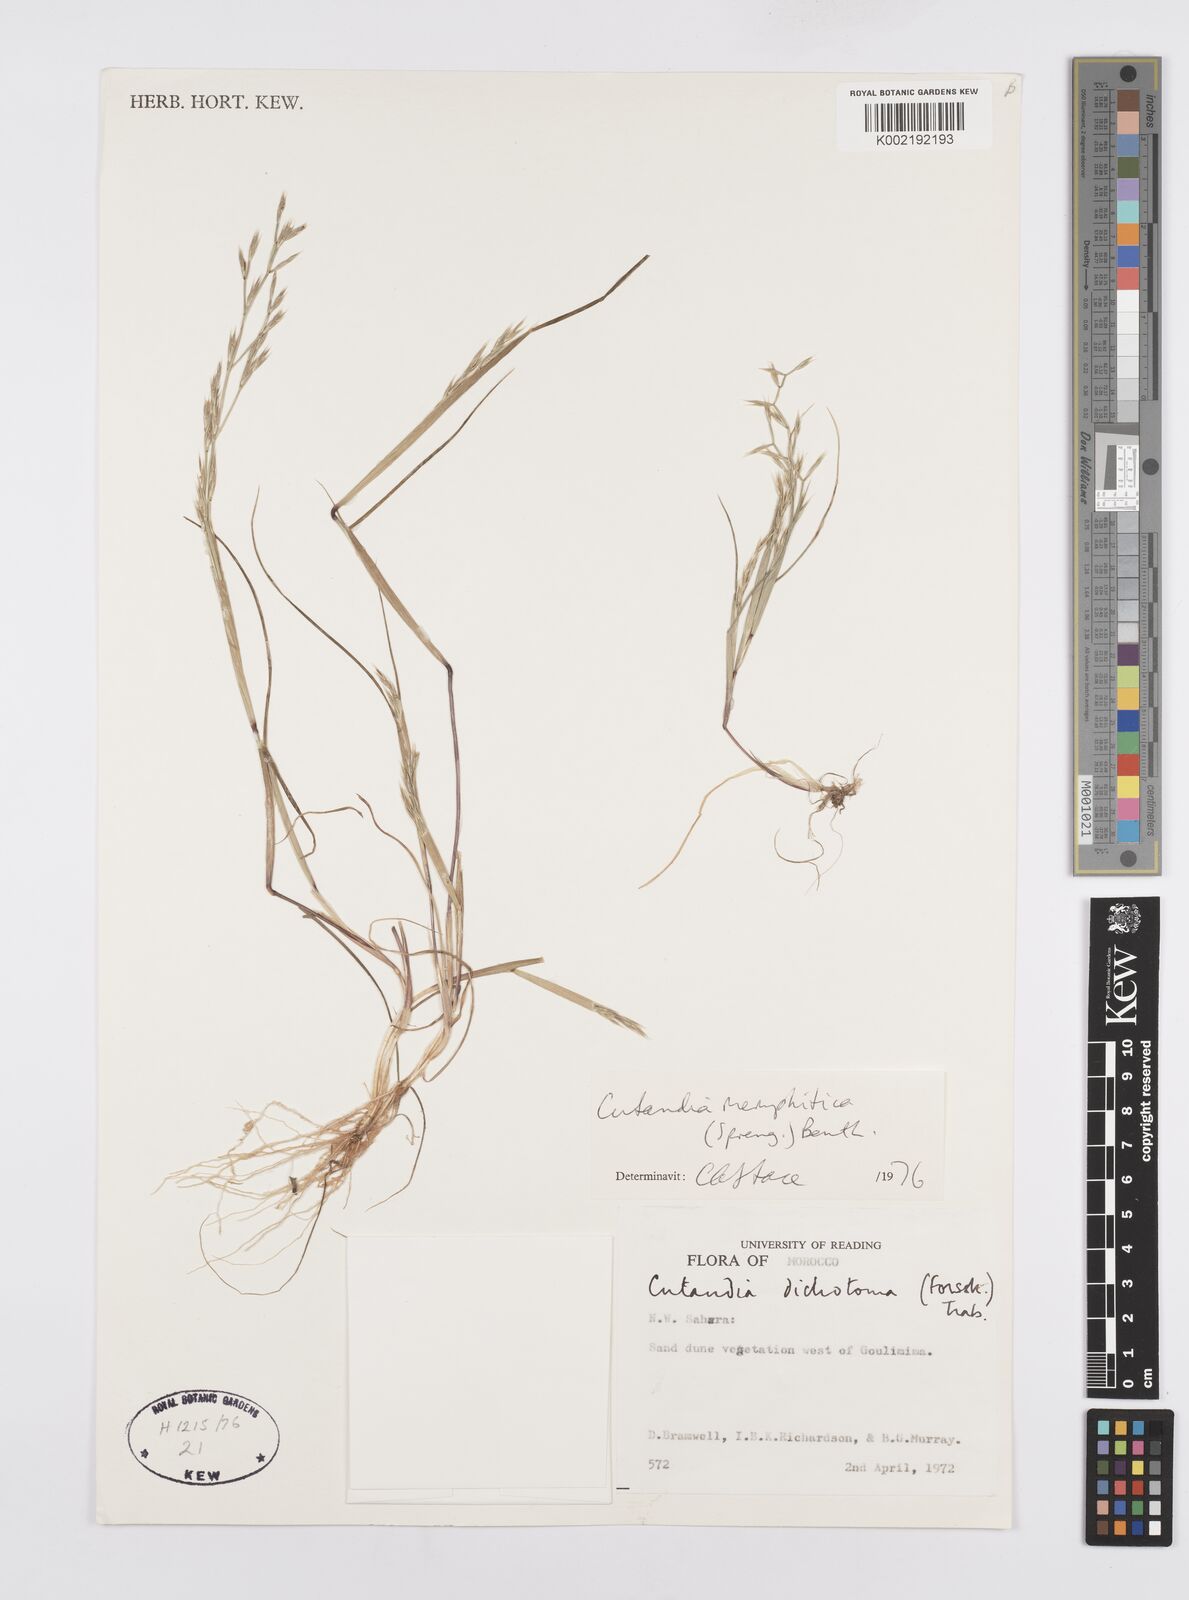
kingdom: Plantae
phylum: Tracheophyta
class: Liliopsida
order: Poales
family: Poaceae
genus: Cutandia
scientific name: Cutandia dichotoma
